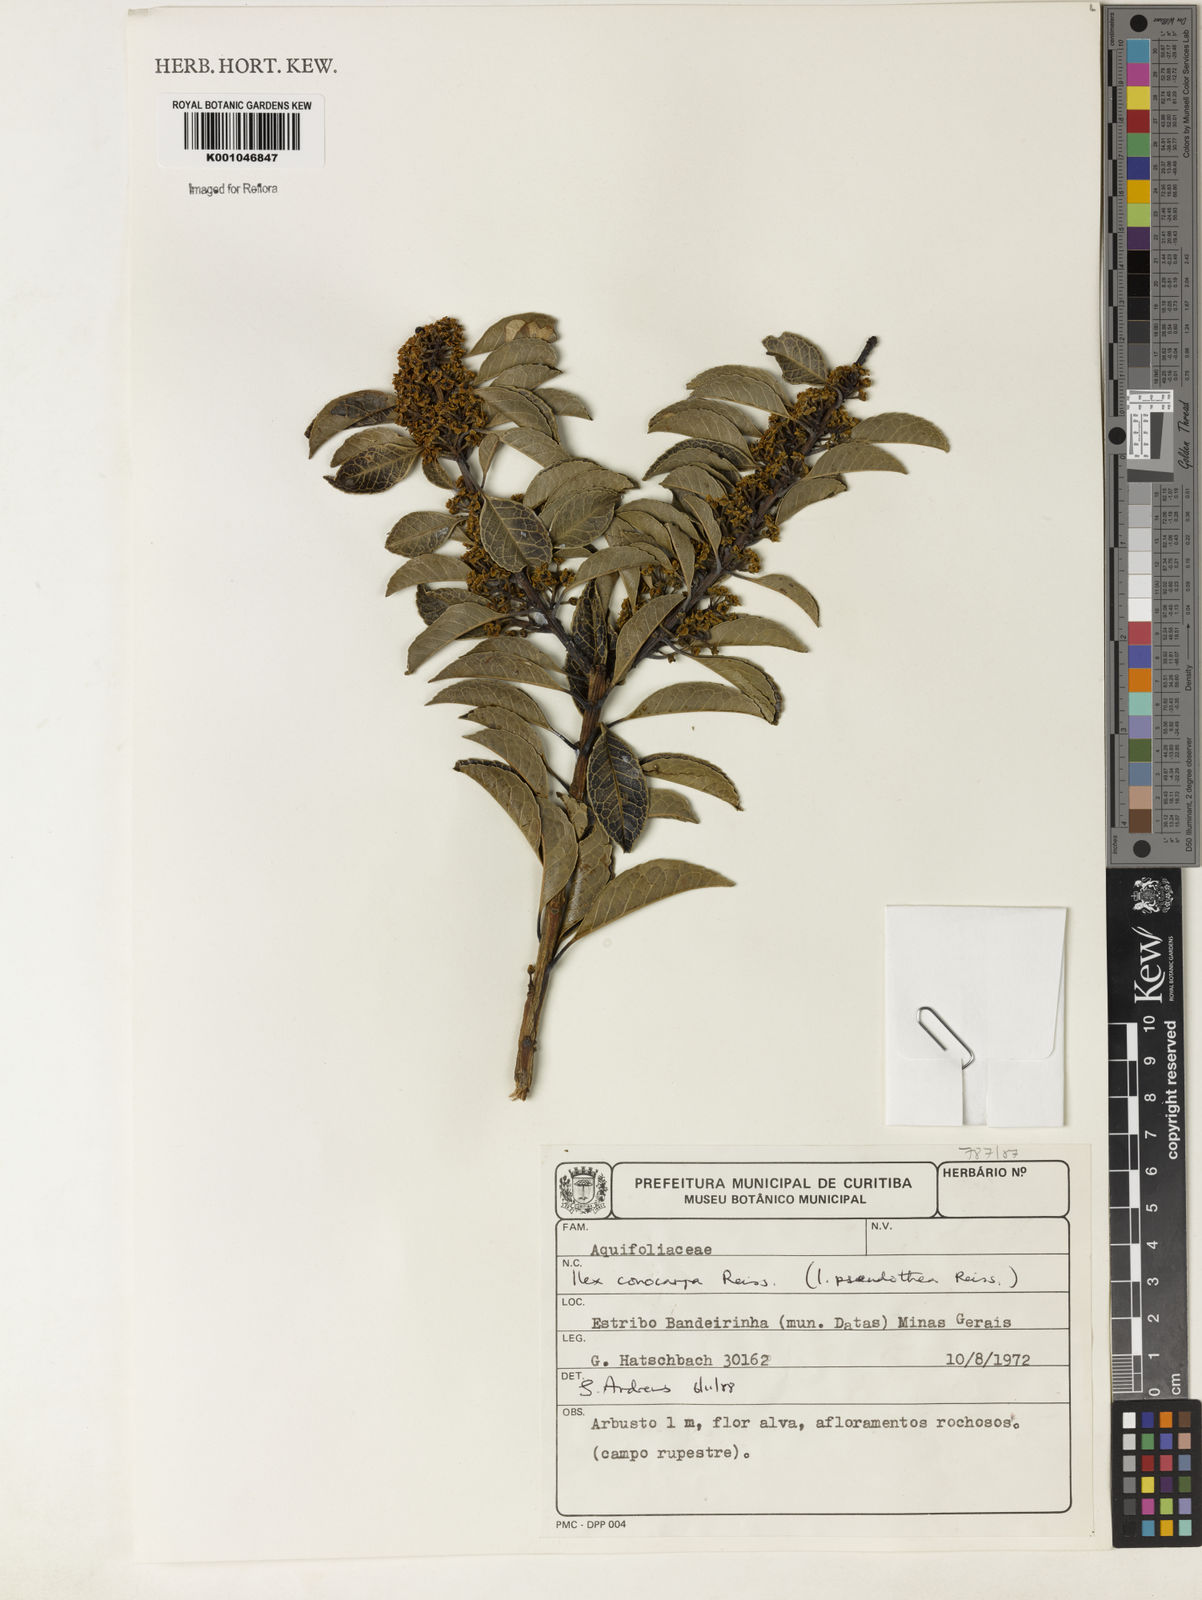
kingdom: Plantae
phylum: Tracheophyta
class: Magnoliopsida
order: Aquifoliales
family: Aquifoliaceae
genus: Ilex
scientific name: Ilex conocarpa
